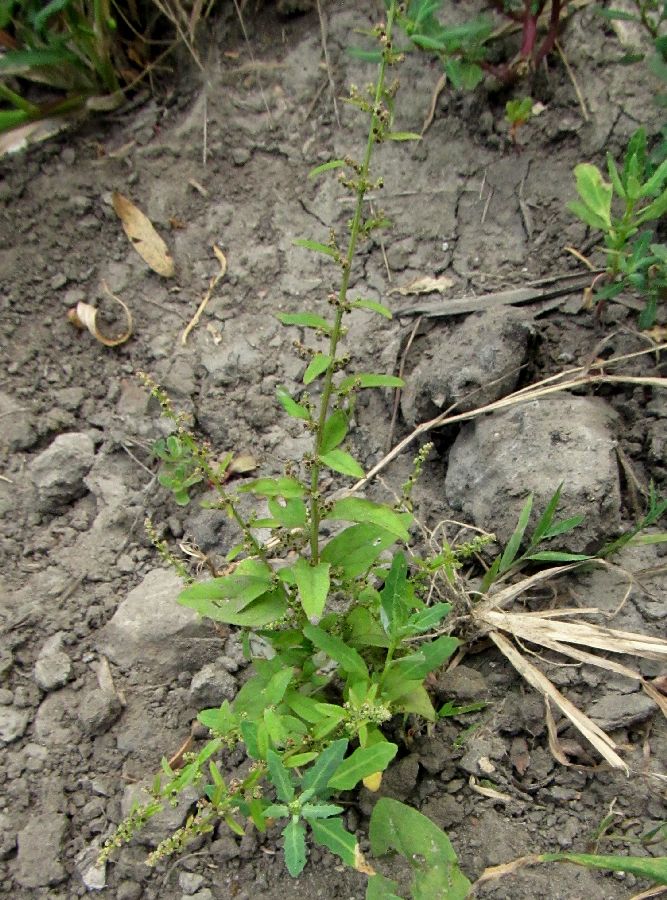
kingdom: Plantae
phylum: Tracheophyta
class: Magnoliopsida
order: Caryophyllales
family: Amaranthaceae
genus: Lipandra
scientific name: Lipandra polysperma
